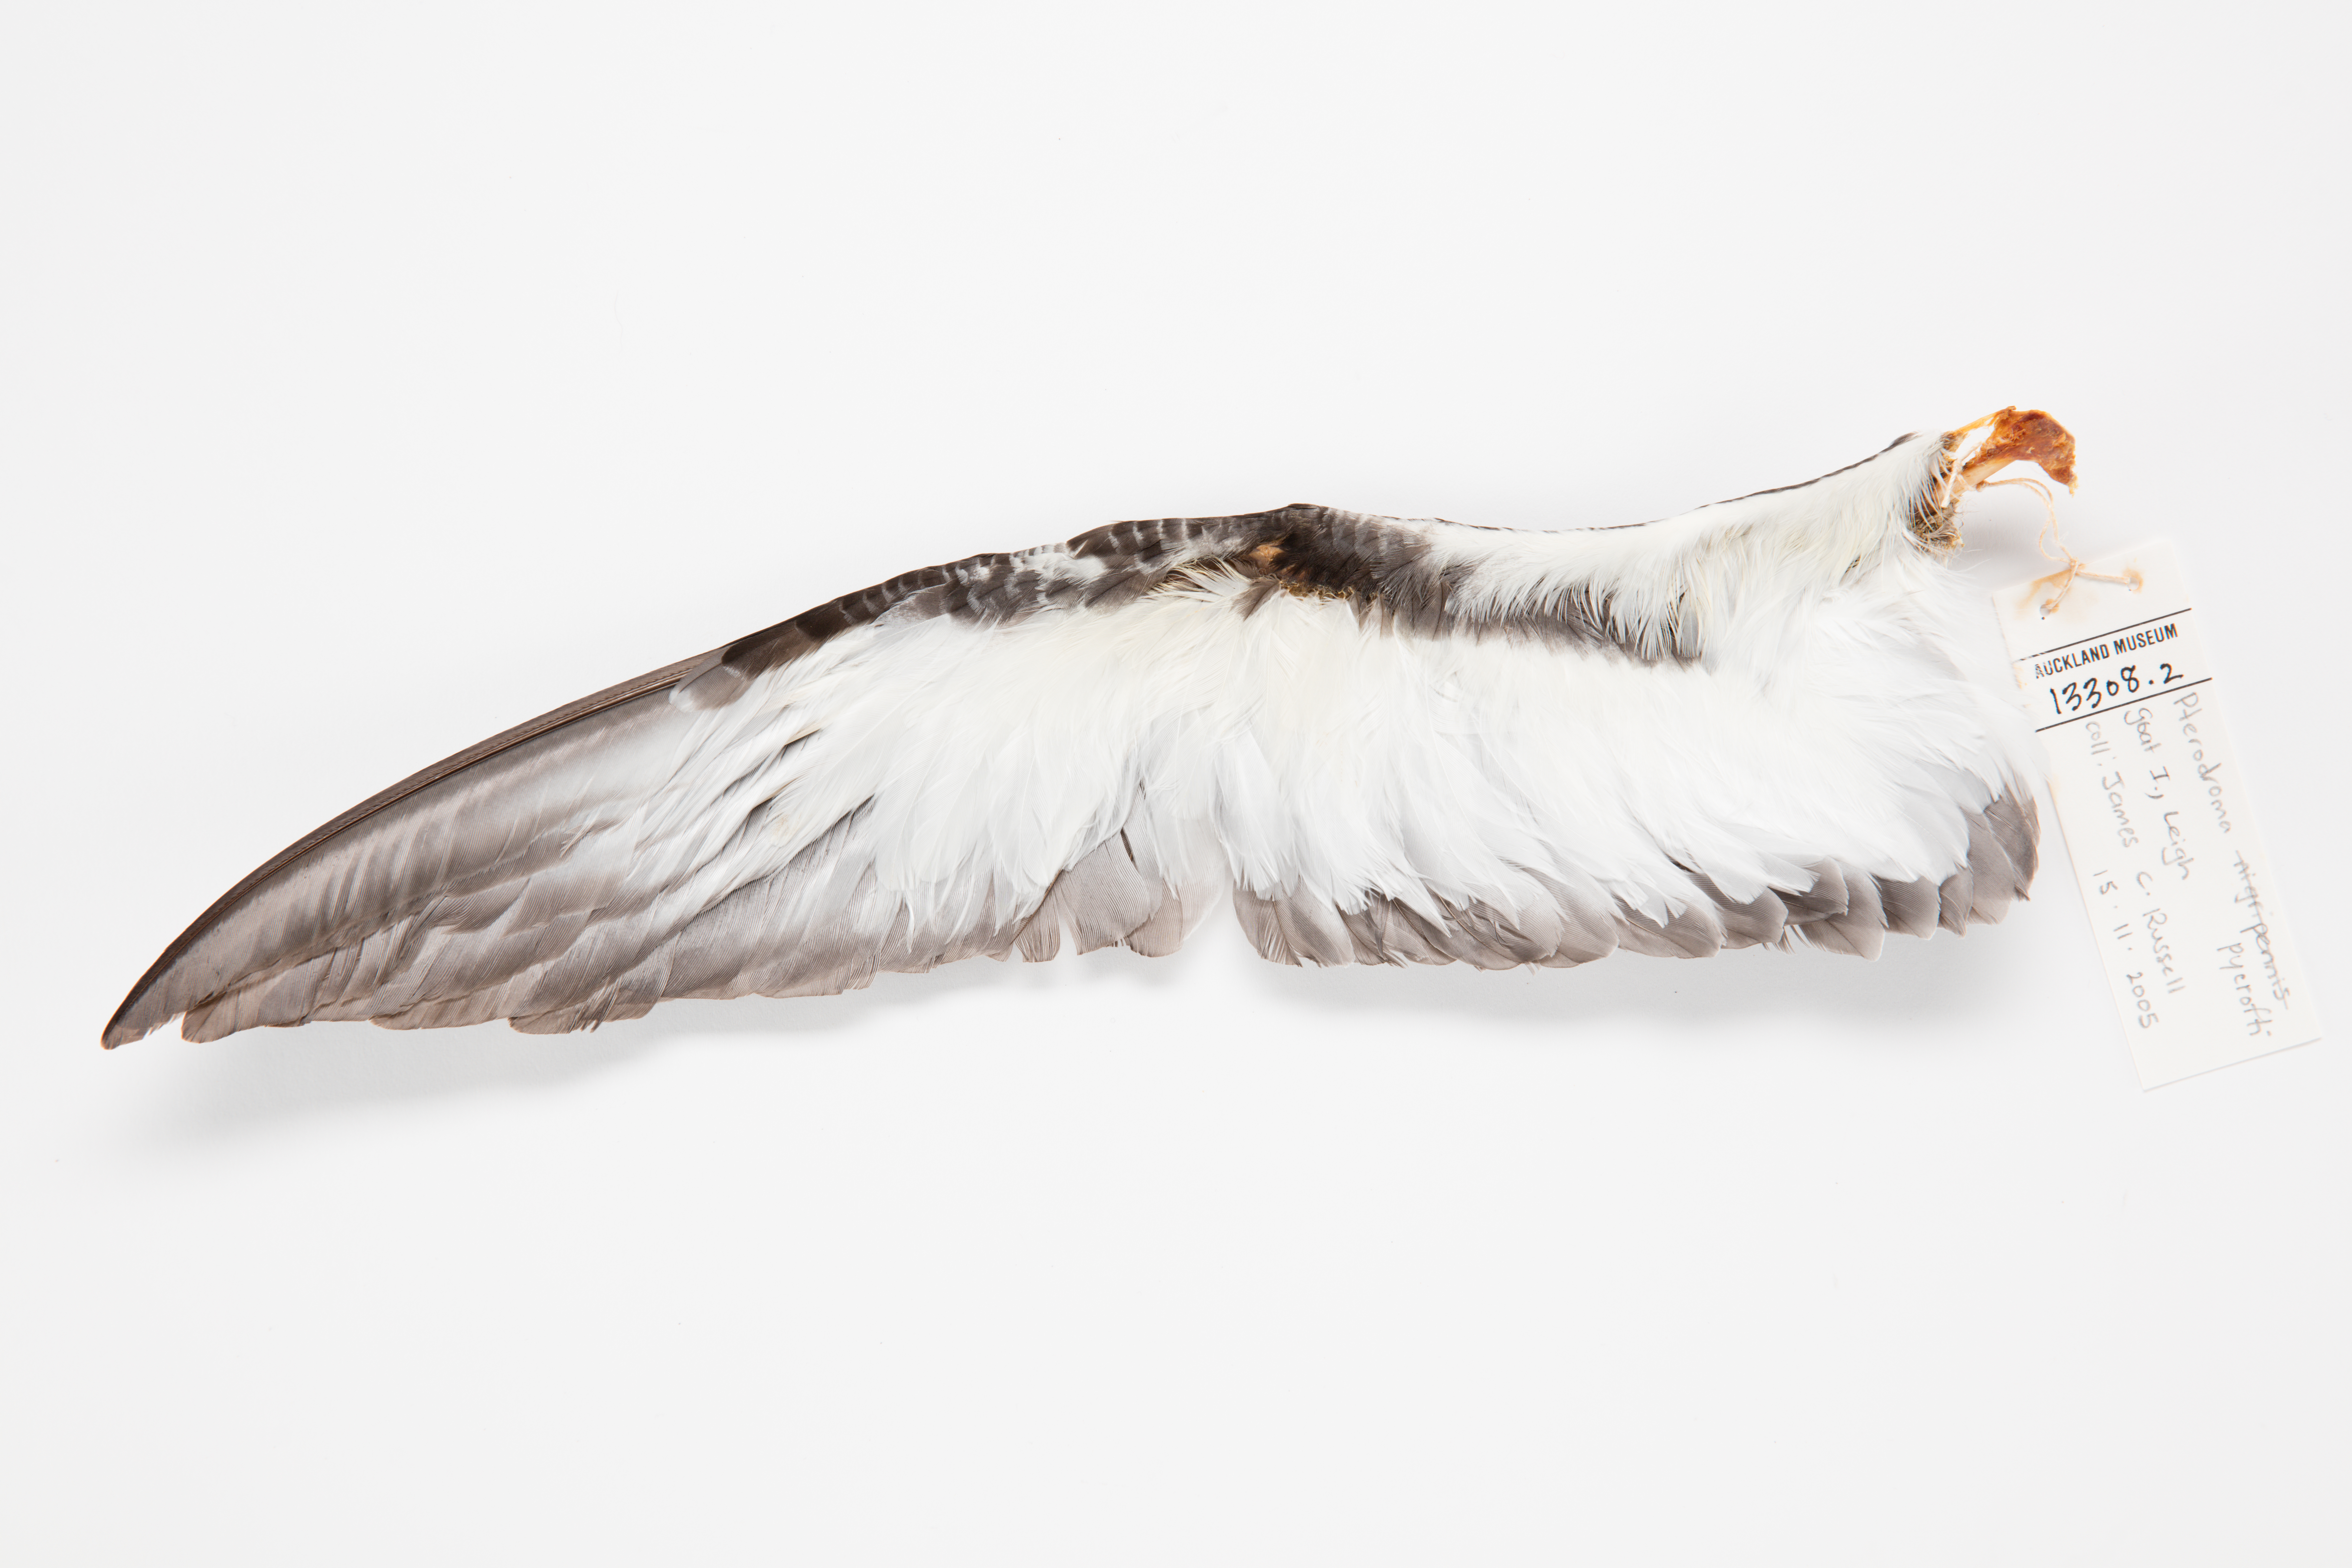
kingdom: Animalia
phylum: Chordata
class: Aves
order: Procellariiformes
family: Procellariidae
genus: Pterodroma
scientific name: Pterodroma pycrofti
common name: Pycroft's petrel
